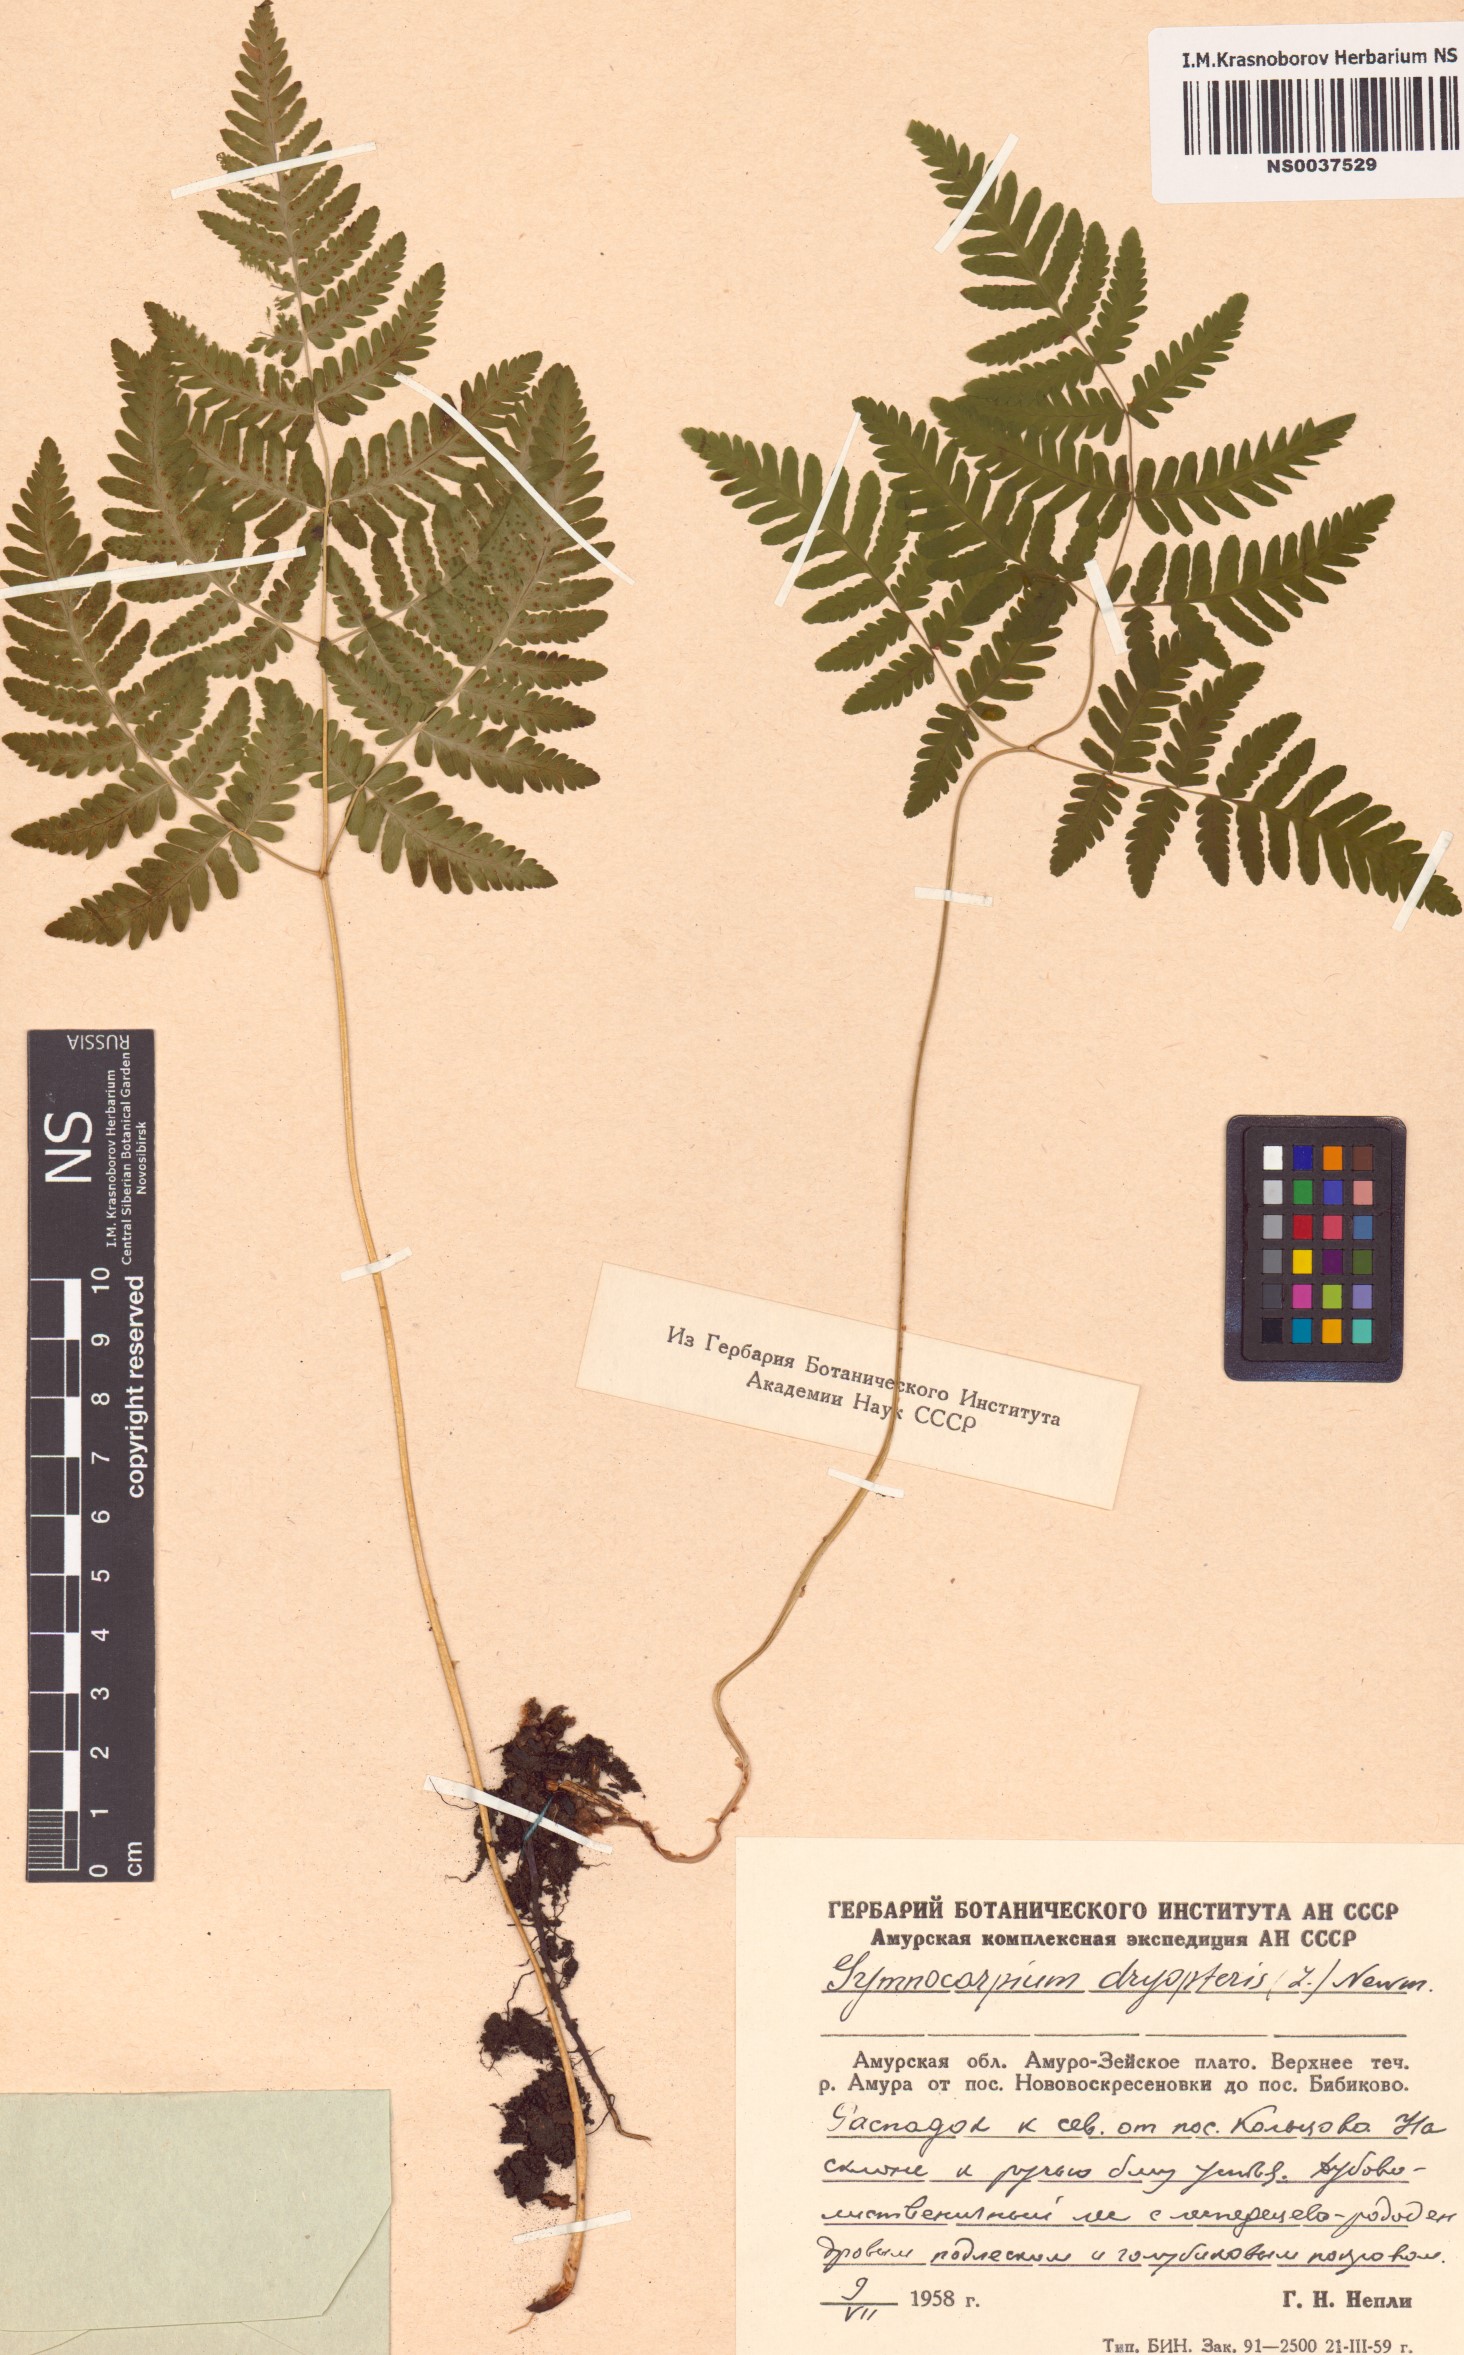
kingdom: Plantae
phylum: Tracheophyta
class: Polypodiopsida
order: Polypodiales
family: Cystopteridaceae
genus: Gymnocarpium
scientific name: Gymnocarpium dryopteris
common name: Oak fern
